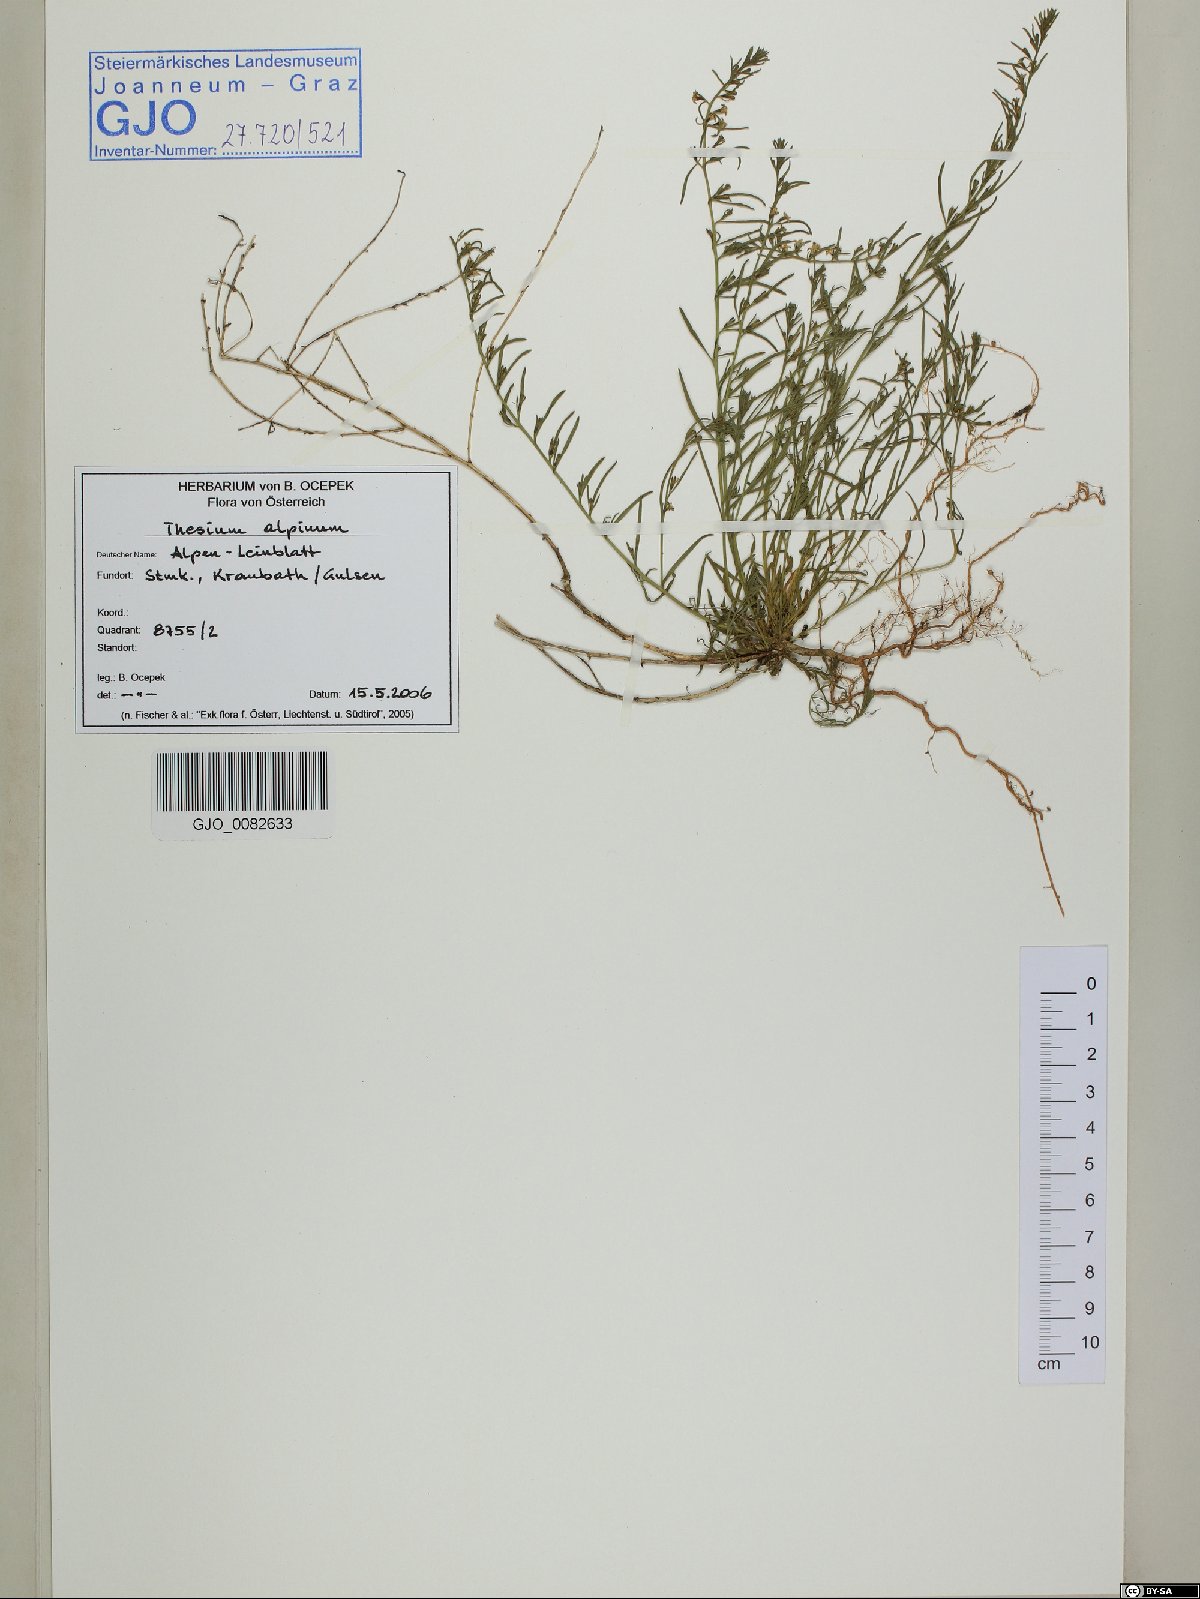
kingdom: Plantae
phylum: Tracheophyta
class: Magnoliopsida
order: Santalales
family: Thesiaceae
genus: Thesium
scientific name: Thesium alpinum
